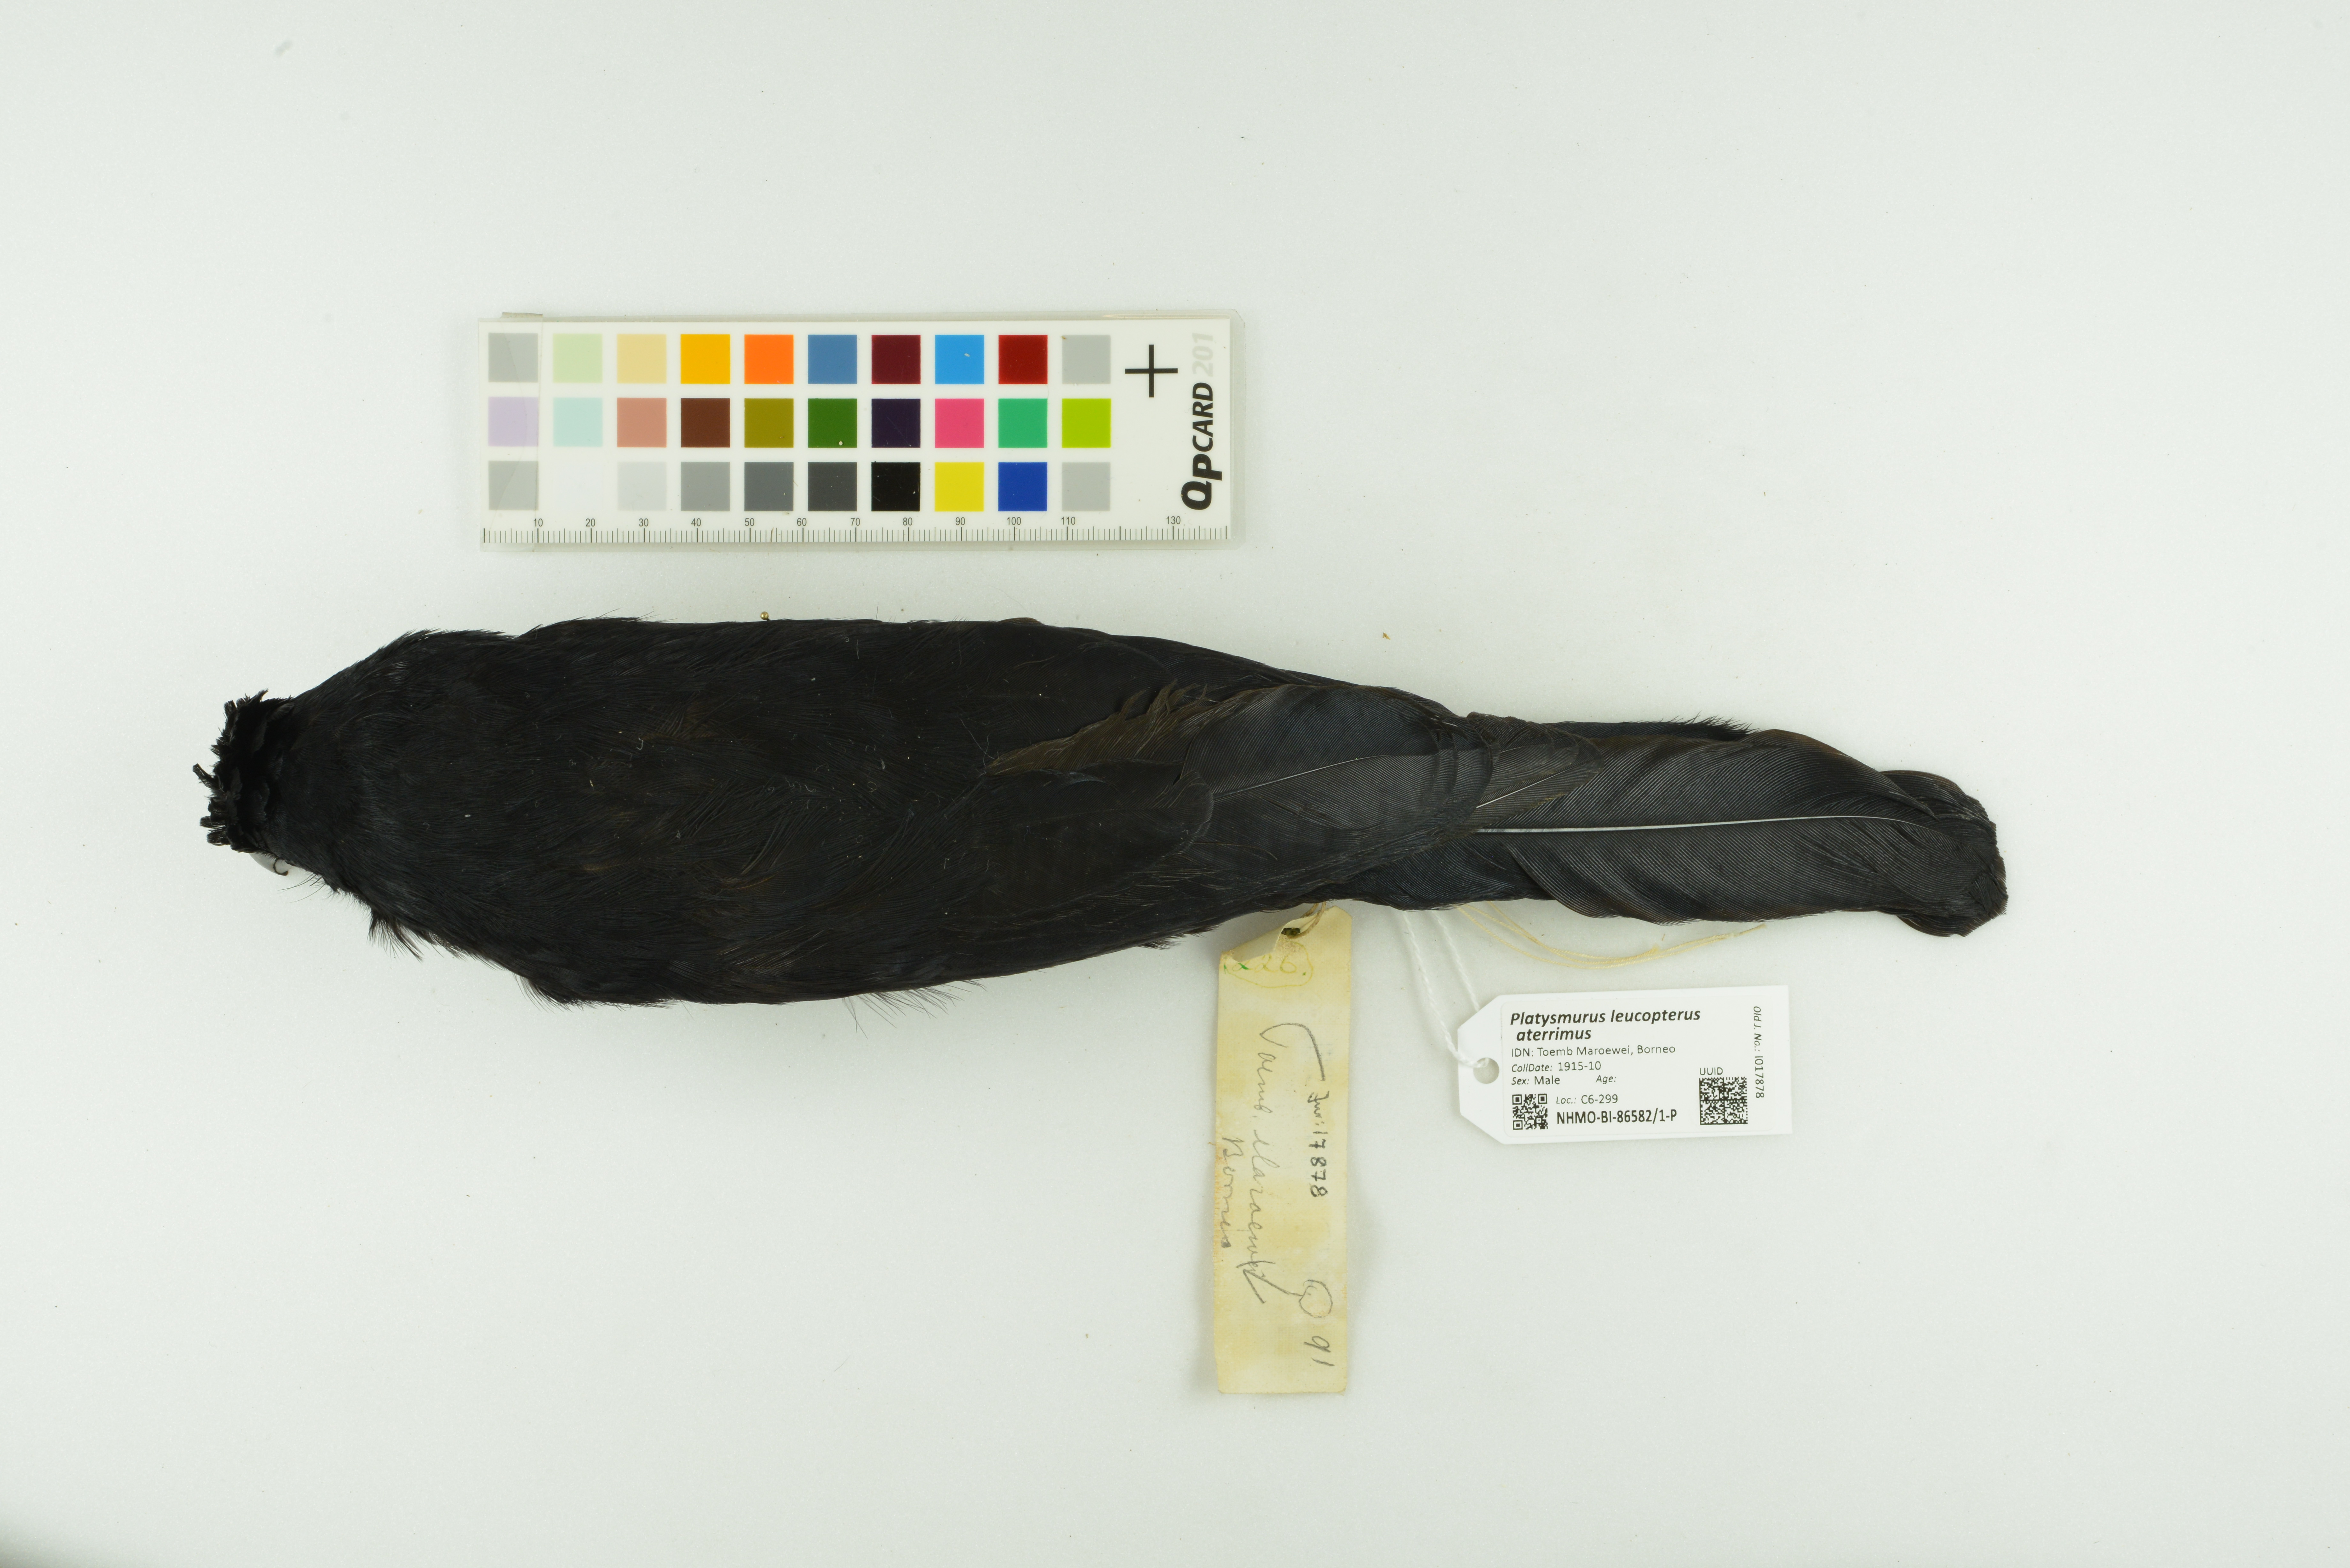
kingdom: Animalia
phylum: Chordata
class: Aves
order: Passeriformes
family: Corvidae
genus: Platysmurus
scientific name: Platysmurus leucopterus
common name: Black magpie
